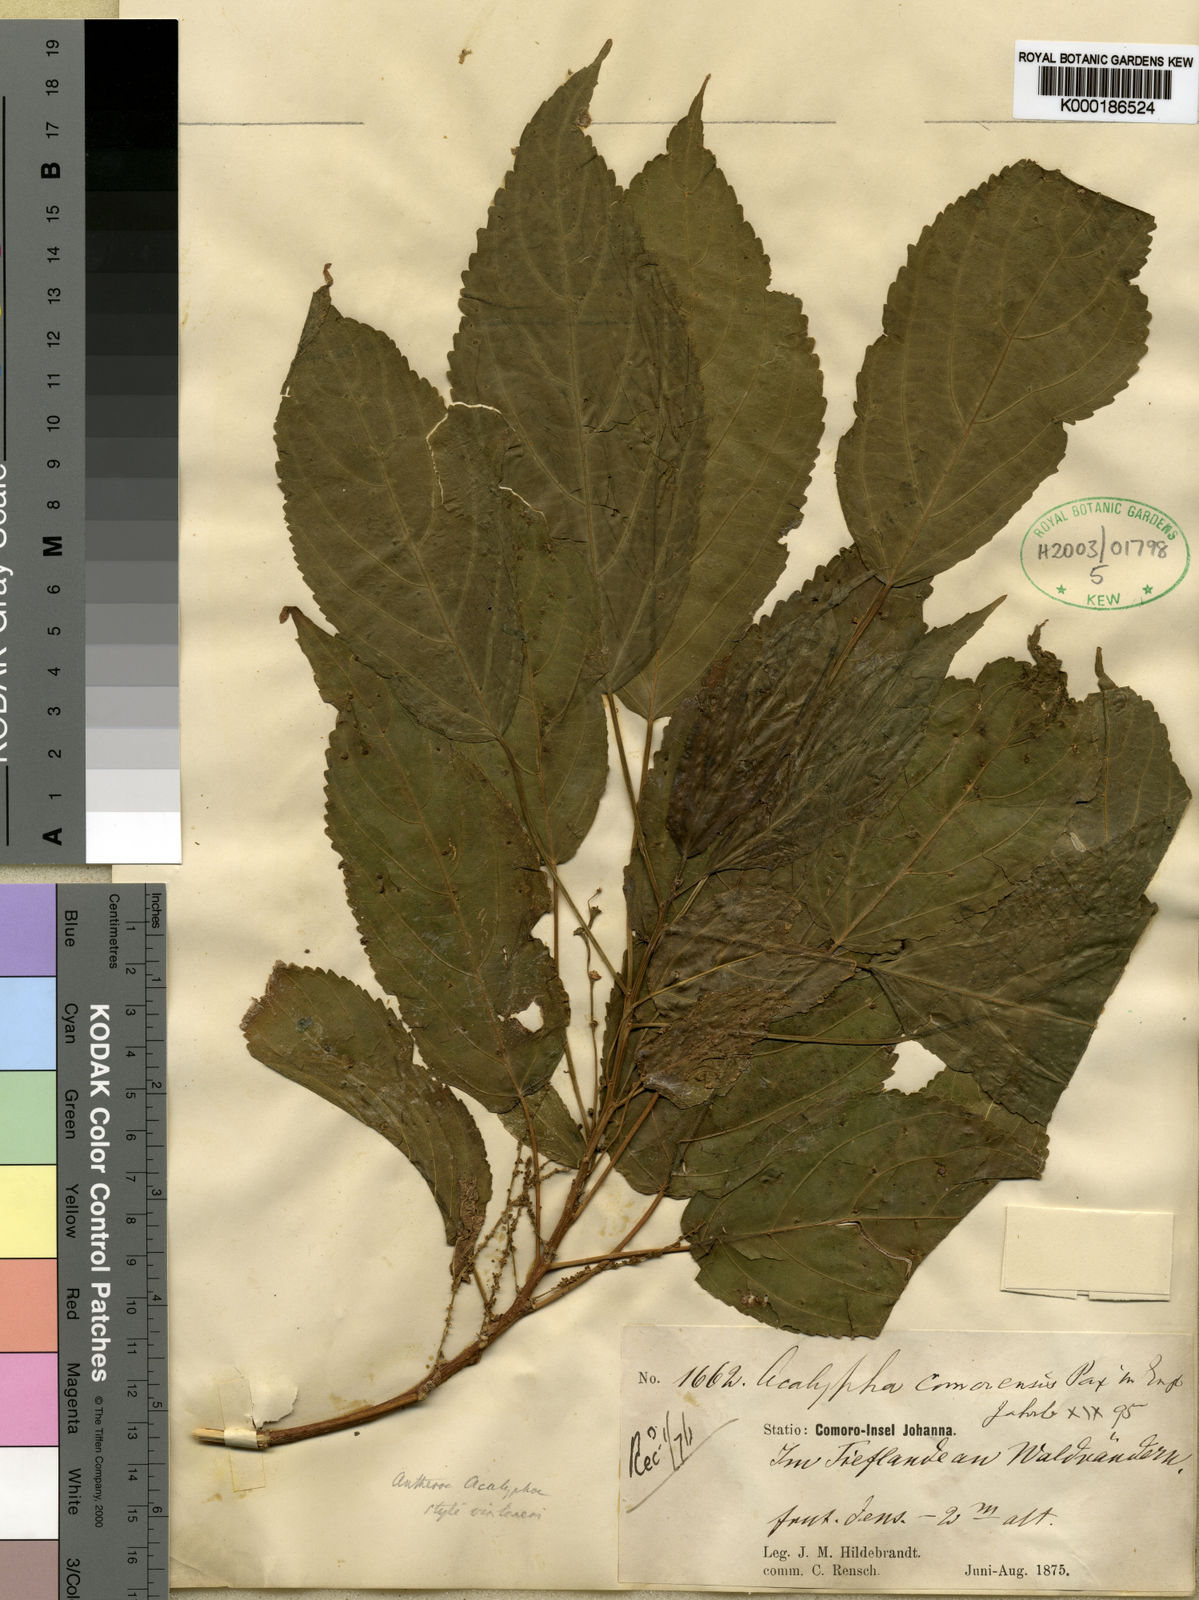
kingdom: Plantae
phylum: Tracheophyta
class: Magnoliopsida
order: Malpighiales
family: Euphorbiaceae
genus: Acalypha
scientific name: Acalypha chibomboa
